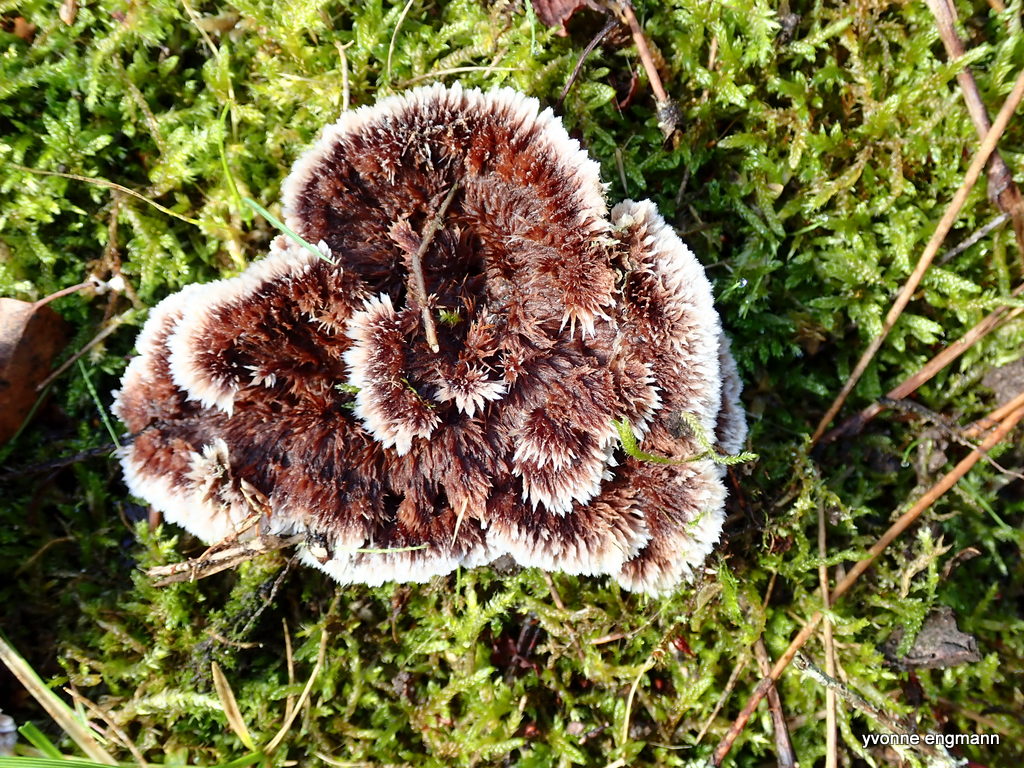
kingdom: Fungi
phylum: Basidiomycota
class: Agaricomycetes
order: Thelephorales
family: Thelephoraceae
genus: Thelephora
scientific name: Thelephora terrestris
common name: fliget frynsesvamp
